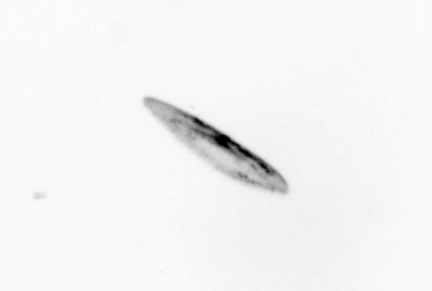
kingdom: Chromista
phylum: Ochrophyta
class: Bacillariophyceae
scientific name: Bacillariophyceae
